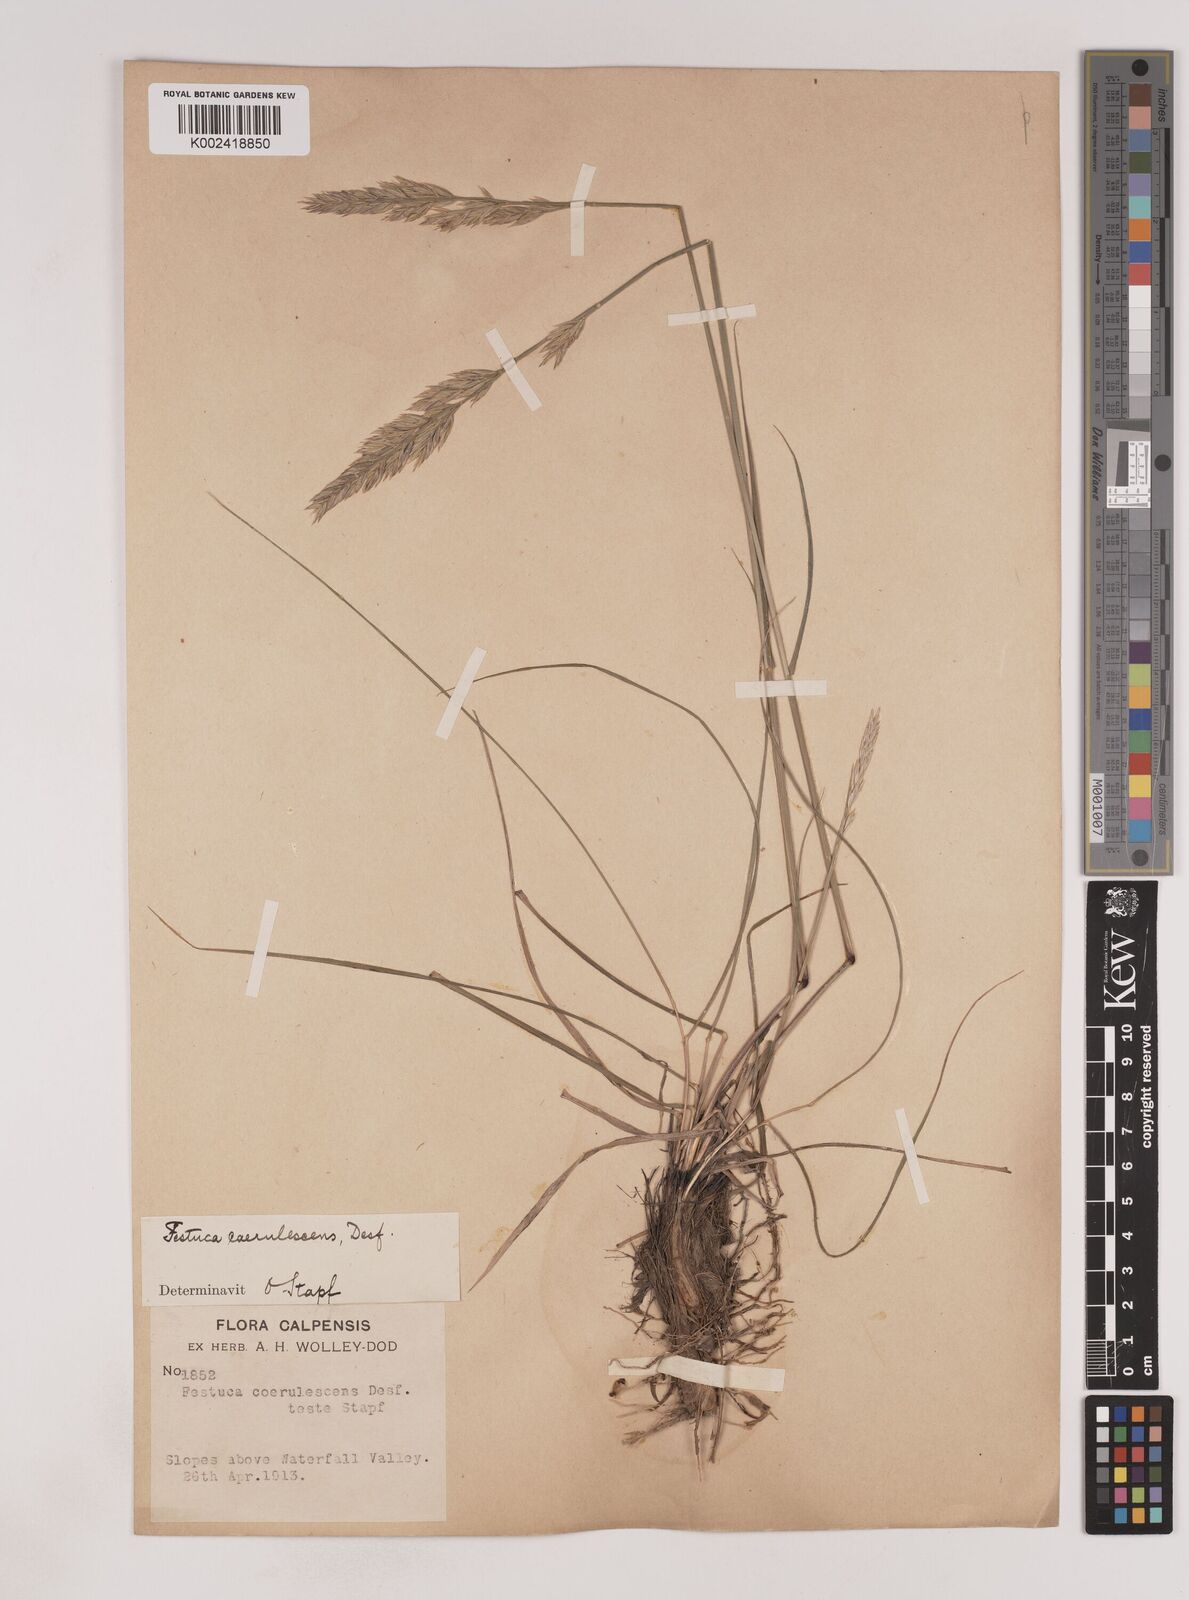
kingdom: Plantae
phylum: Tracheophyta
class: Liliopsida
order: Poales
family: Poaceae
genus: Patzkea
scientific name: Patzkea coerulescens
